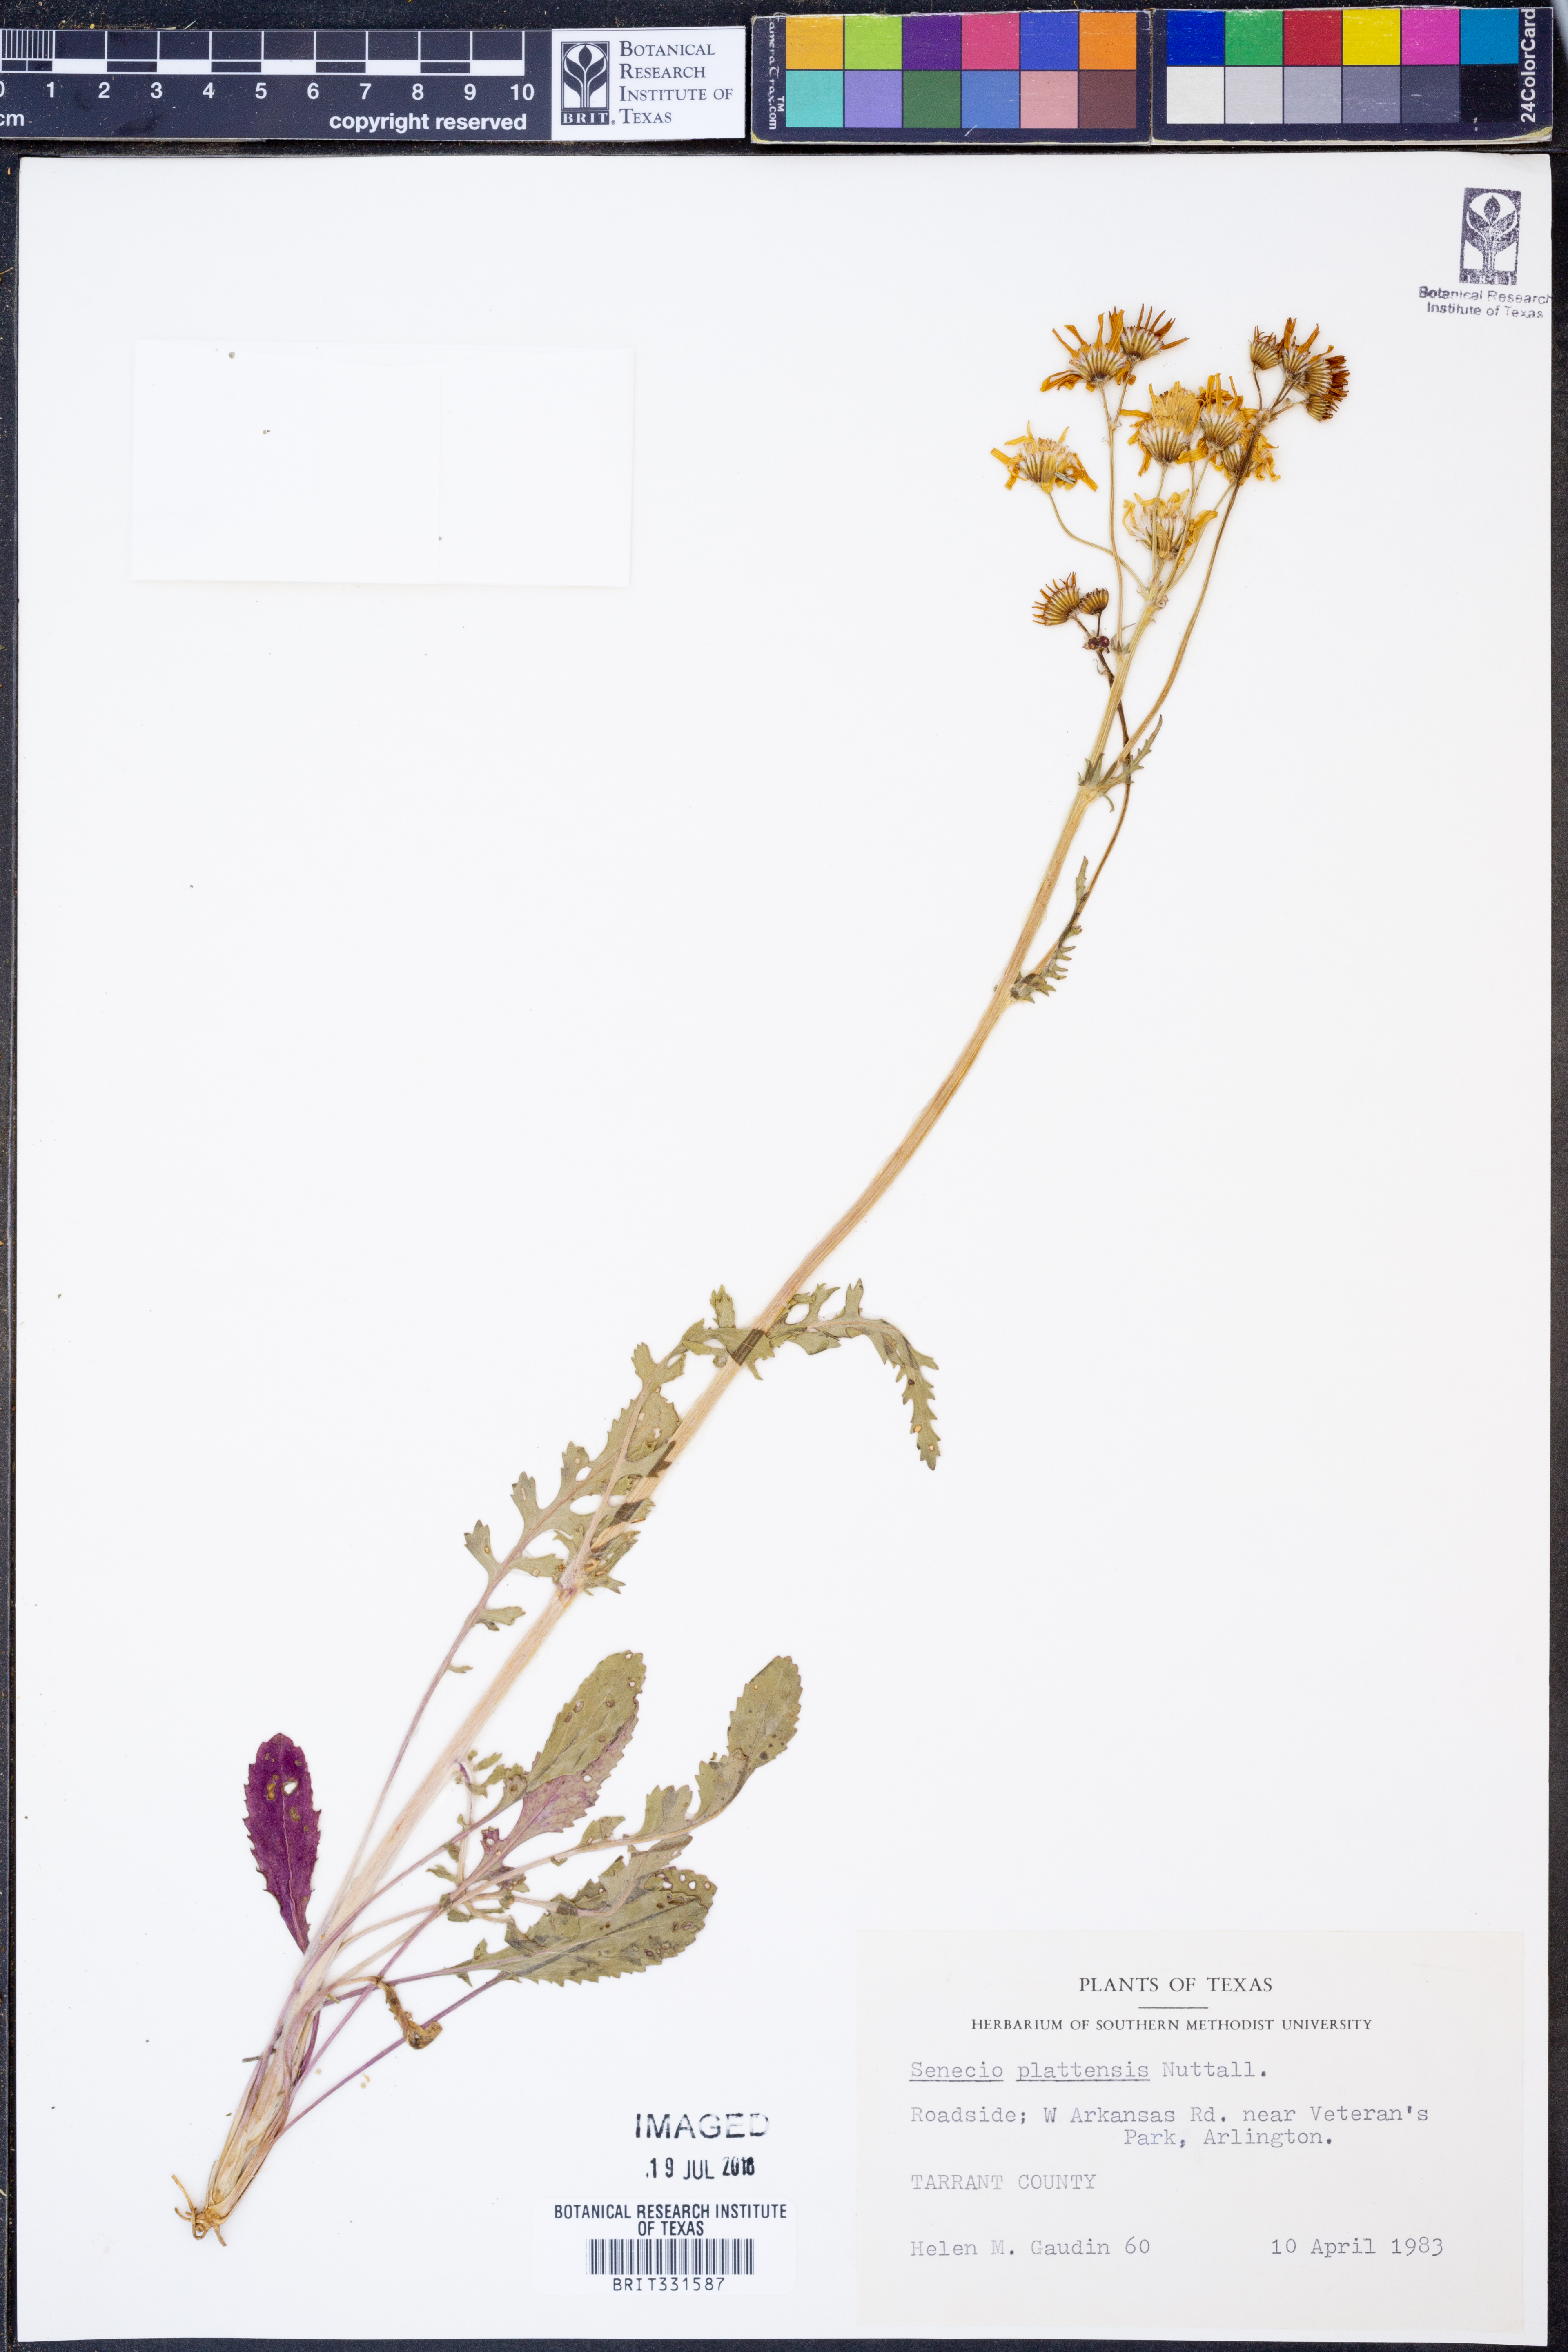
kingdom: Plantae
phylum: Tracheophyta
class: Magnoliopsida
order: Asterales
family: Asteraceae
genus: Packera
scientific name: Packera plattensis
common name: Prairie groundsel
